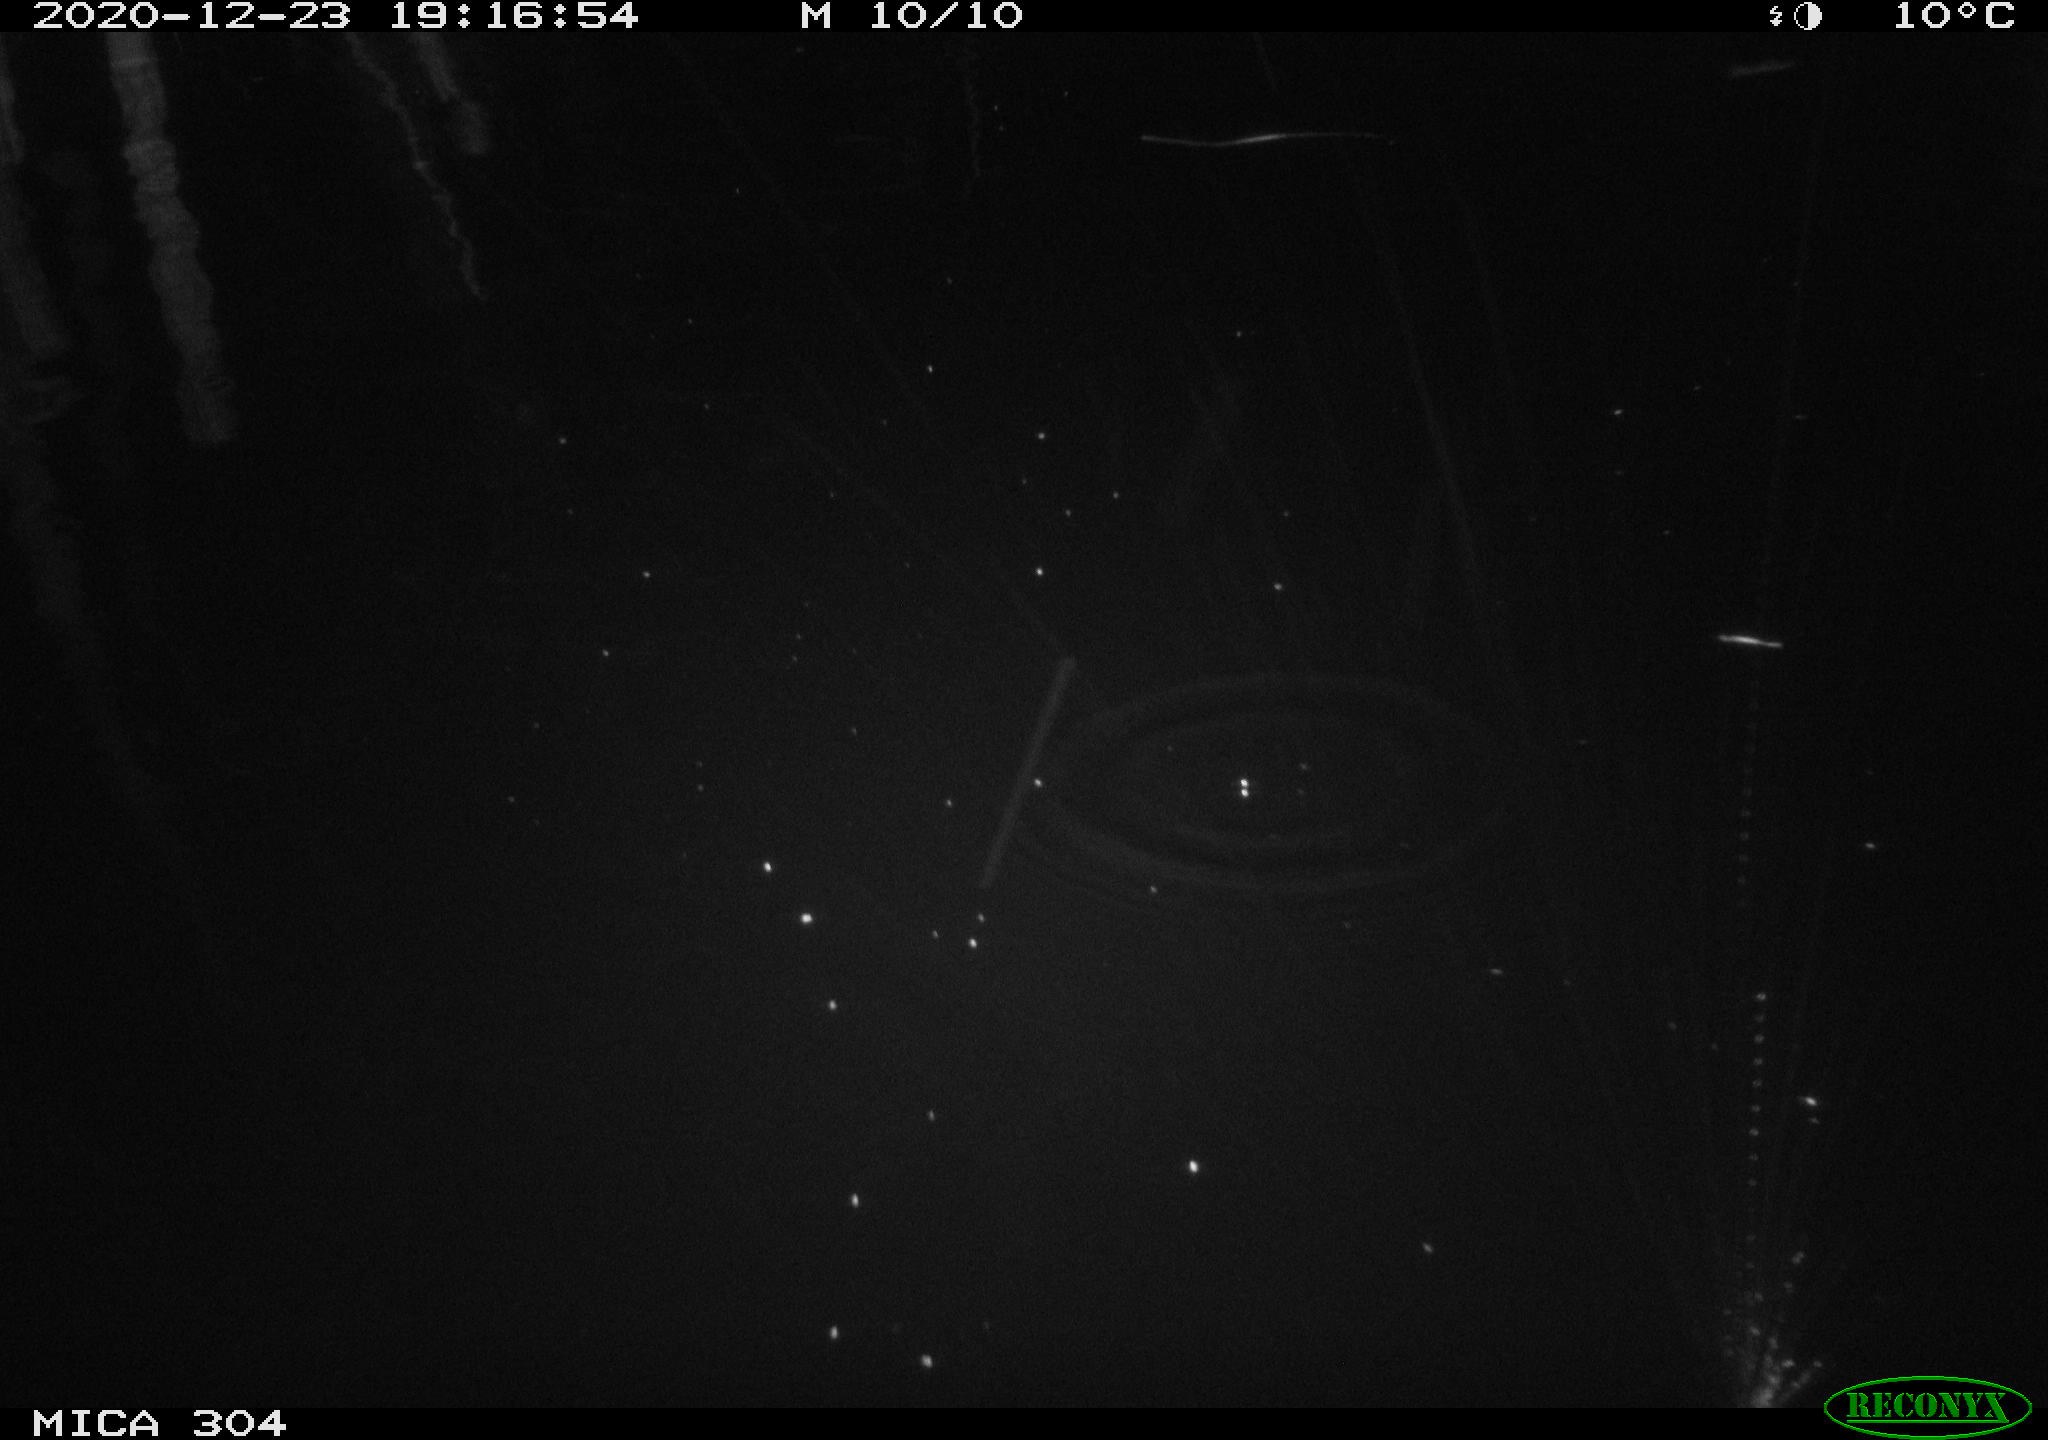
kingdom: Animalia
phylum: Chordata
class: Mammalia
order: Rodentia
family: Muridae
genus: Rattus
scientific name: Rattus norvegicus
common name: Brown rat
